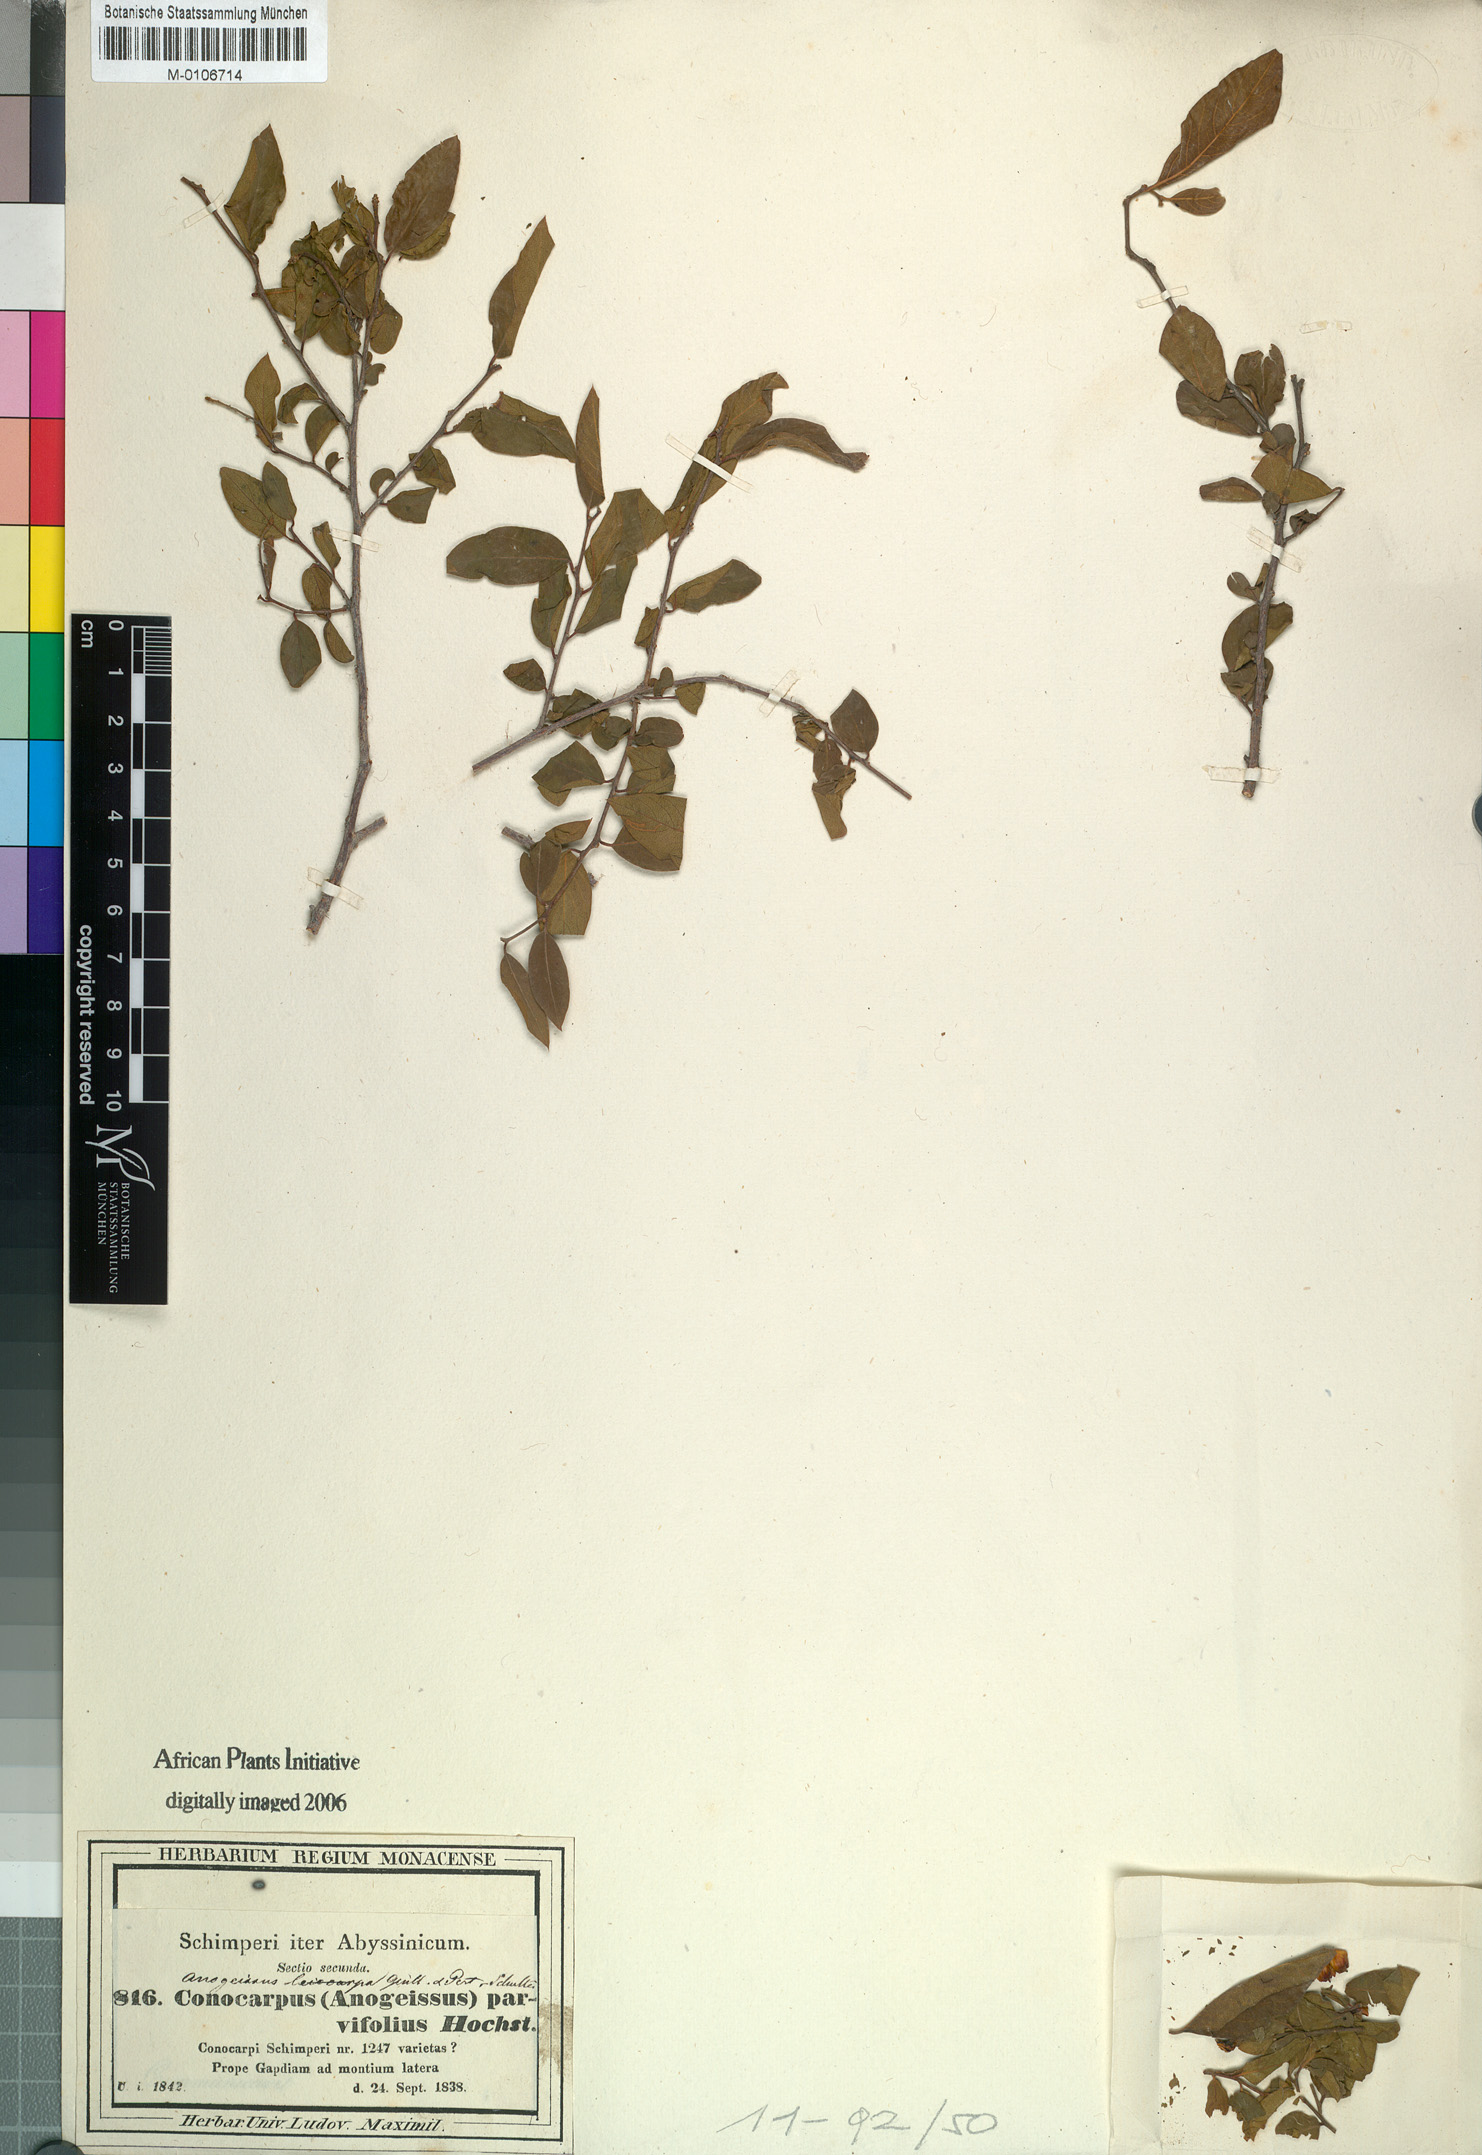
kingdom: Plantae
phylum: Tracheophyta
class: Magnoliopsida
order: Myrtales
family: Combretaceae
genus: Terminalia
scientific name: Terminalia leiocarpa
